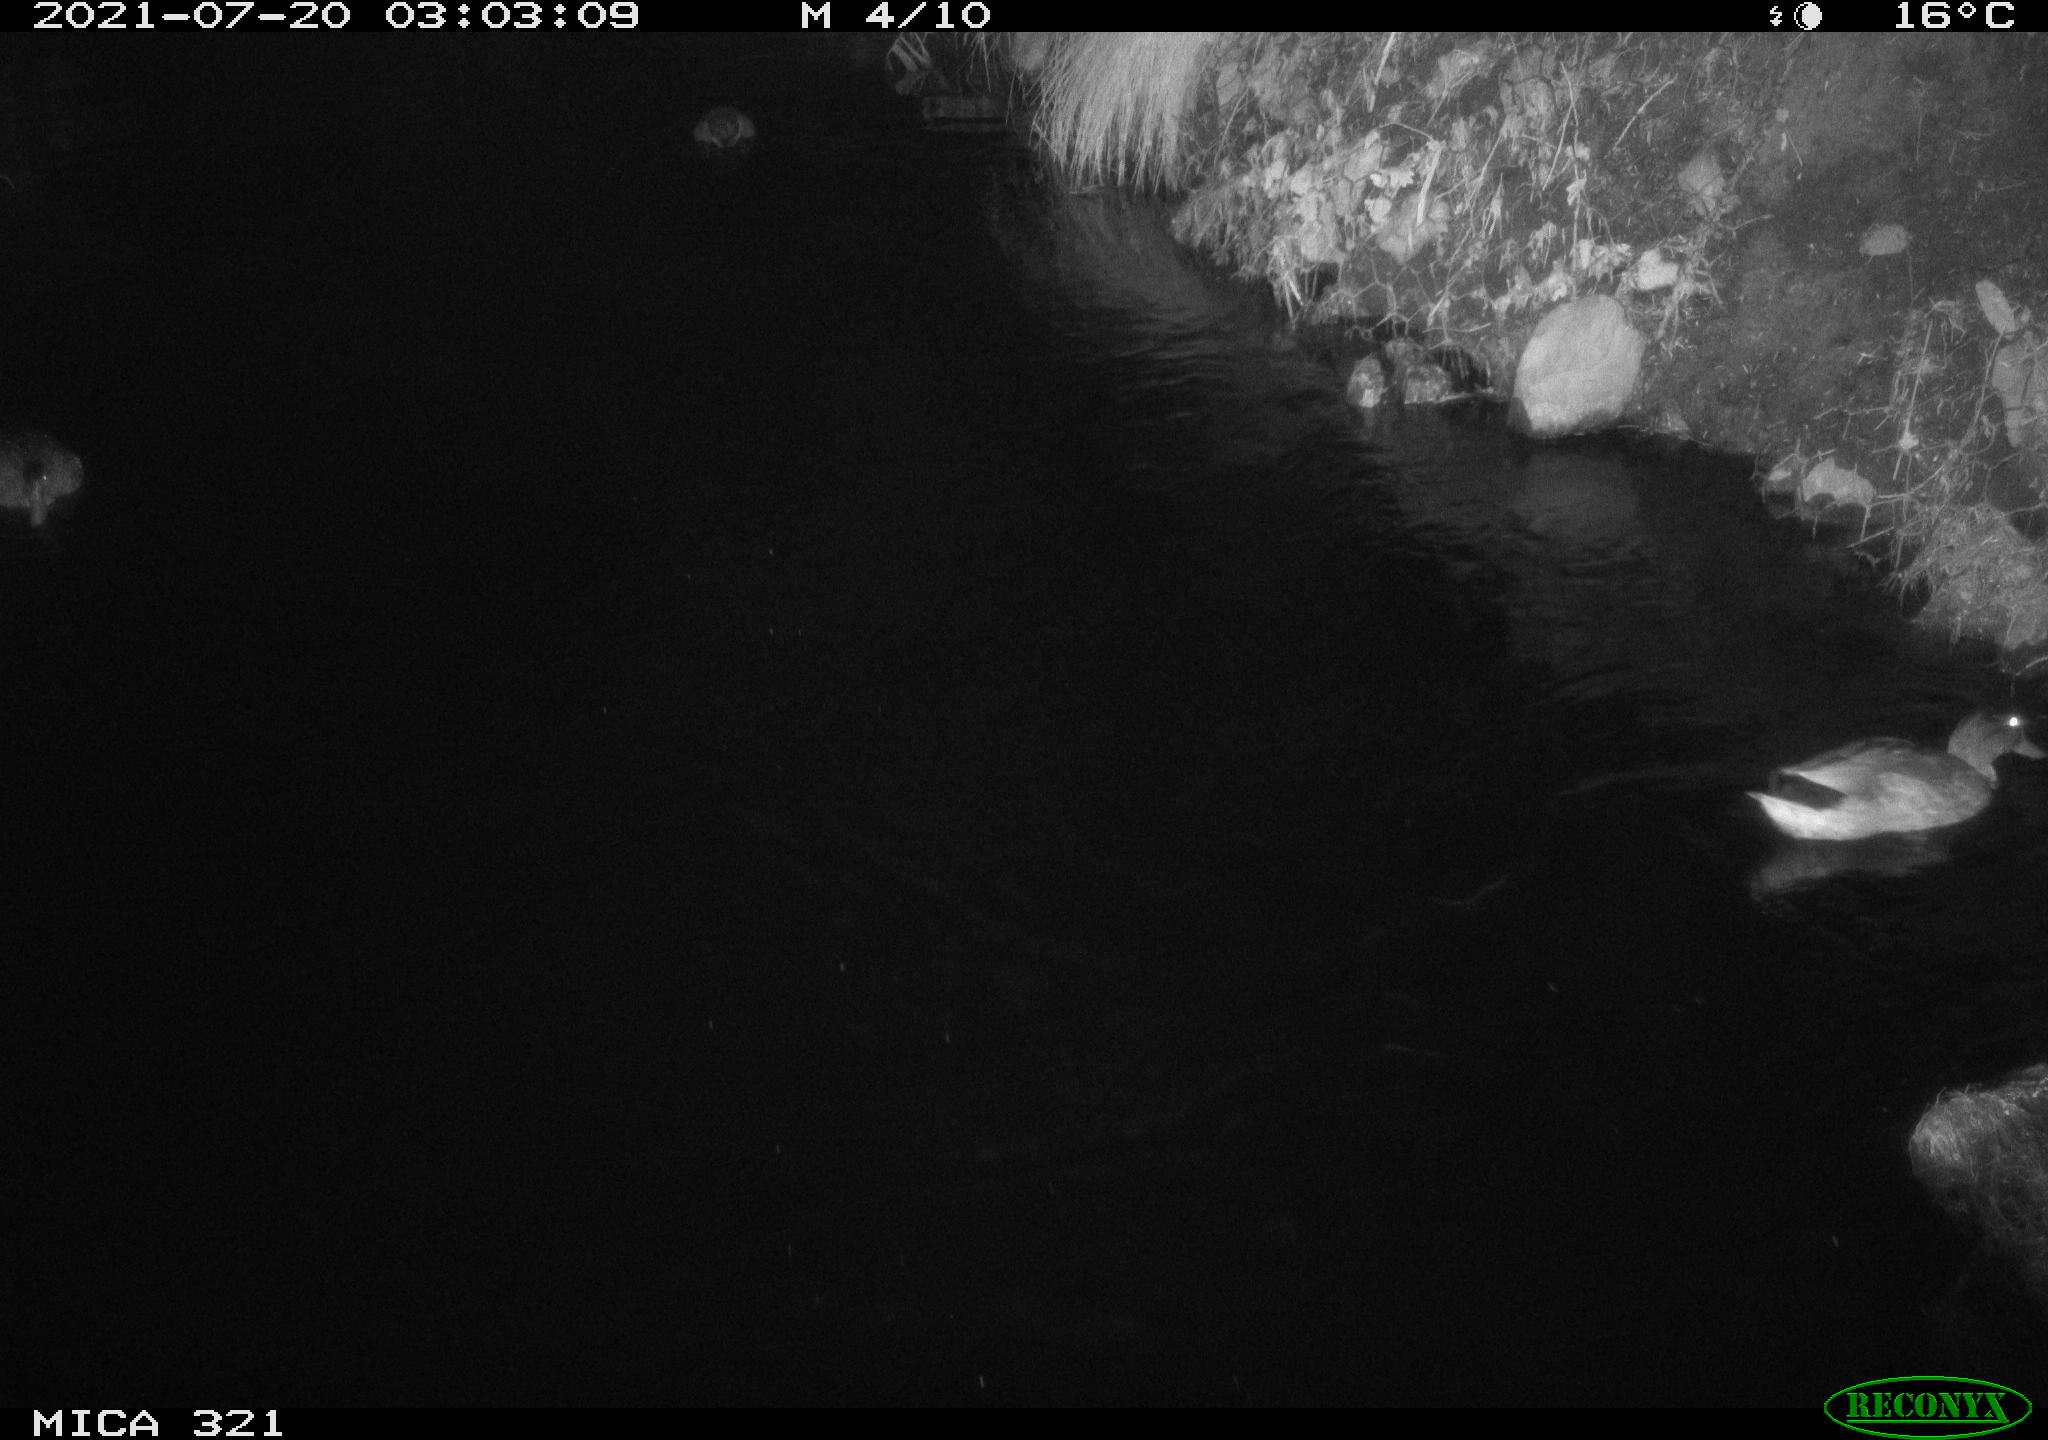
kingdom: Animalia
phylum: Chordata
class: Aves
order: Anseriformes
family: Anatidae
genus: Anas
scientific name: Anas platyrhynchos
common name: Mallard
